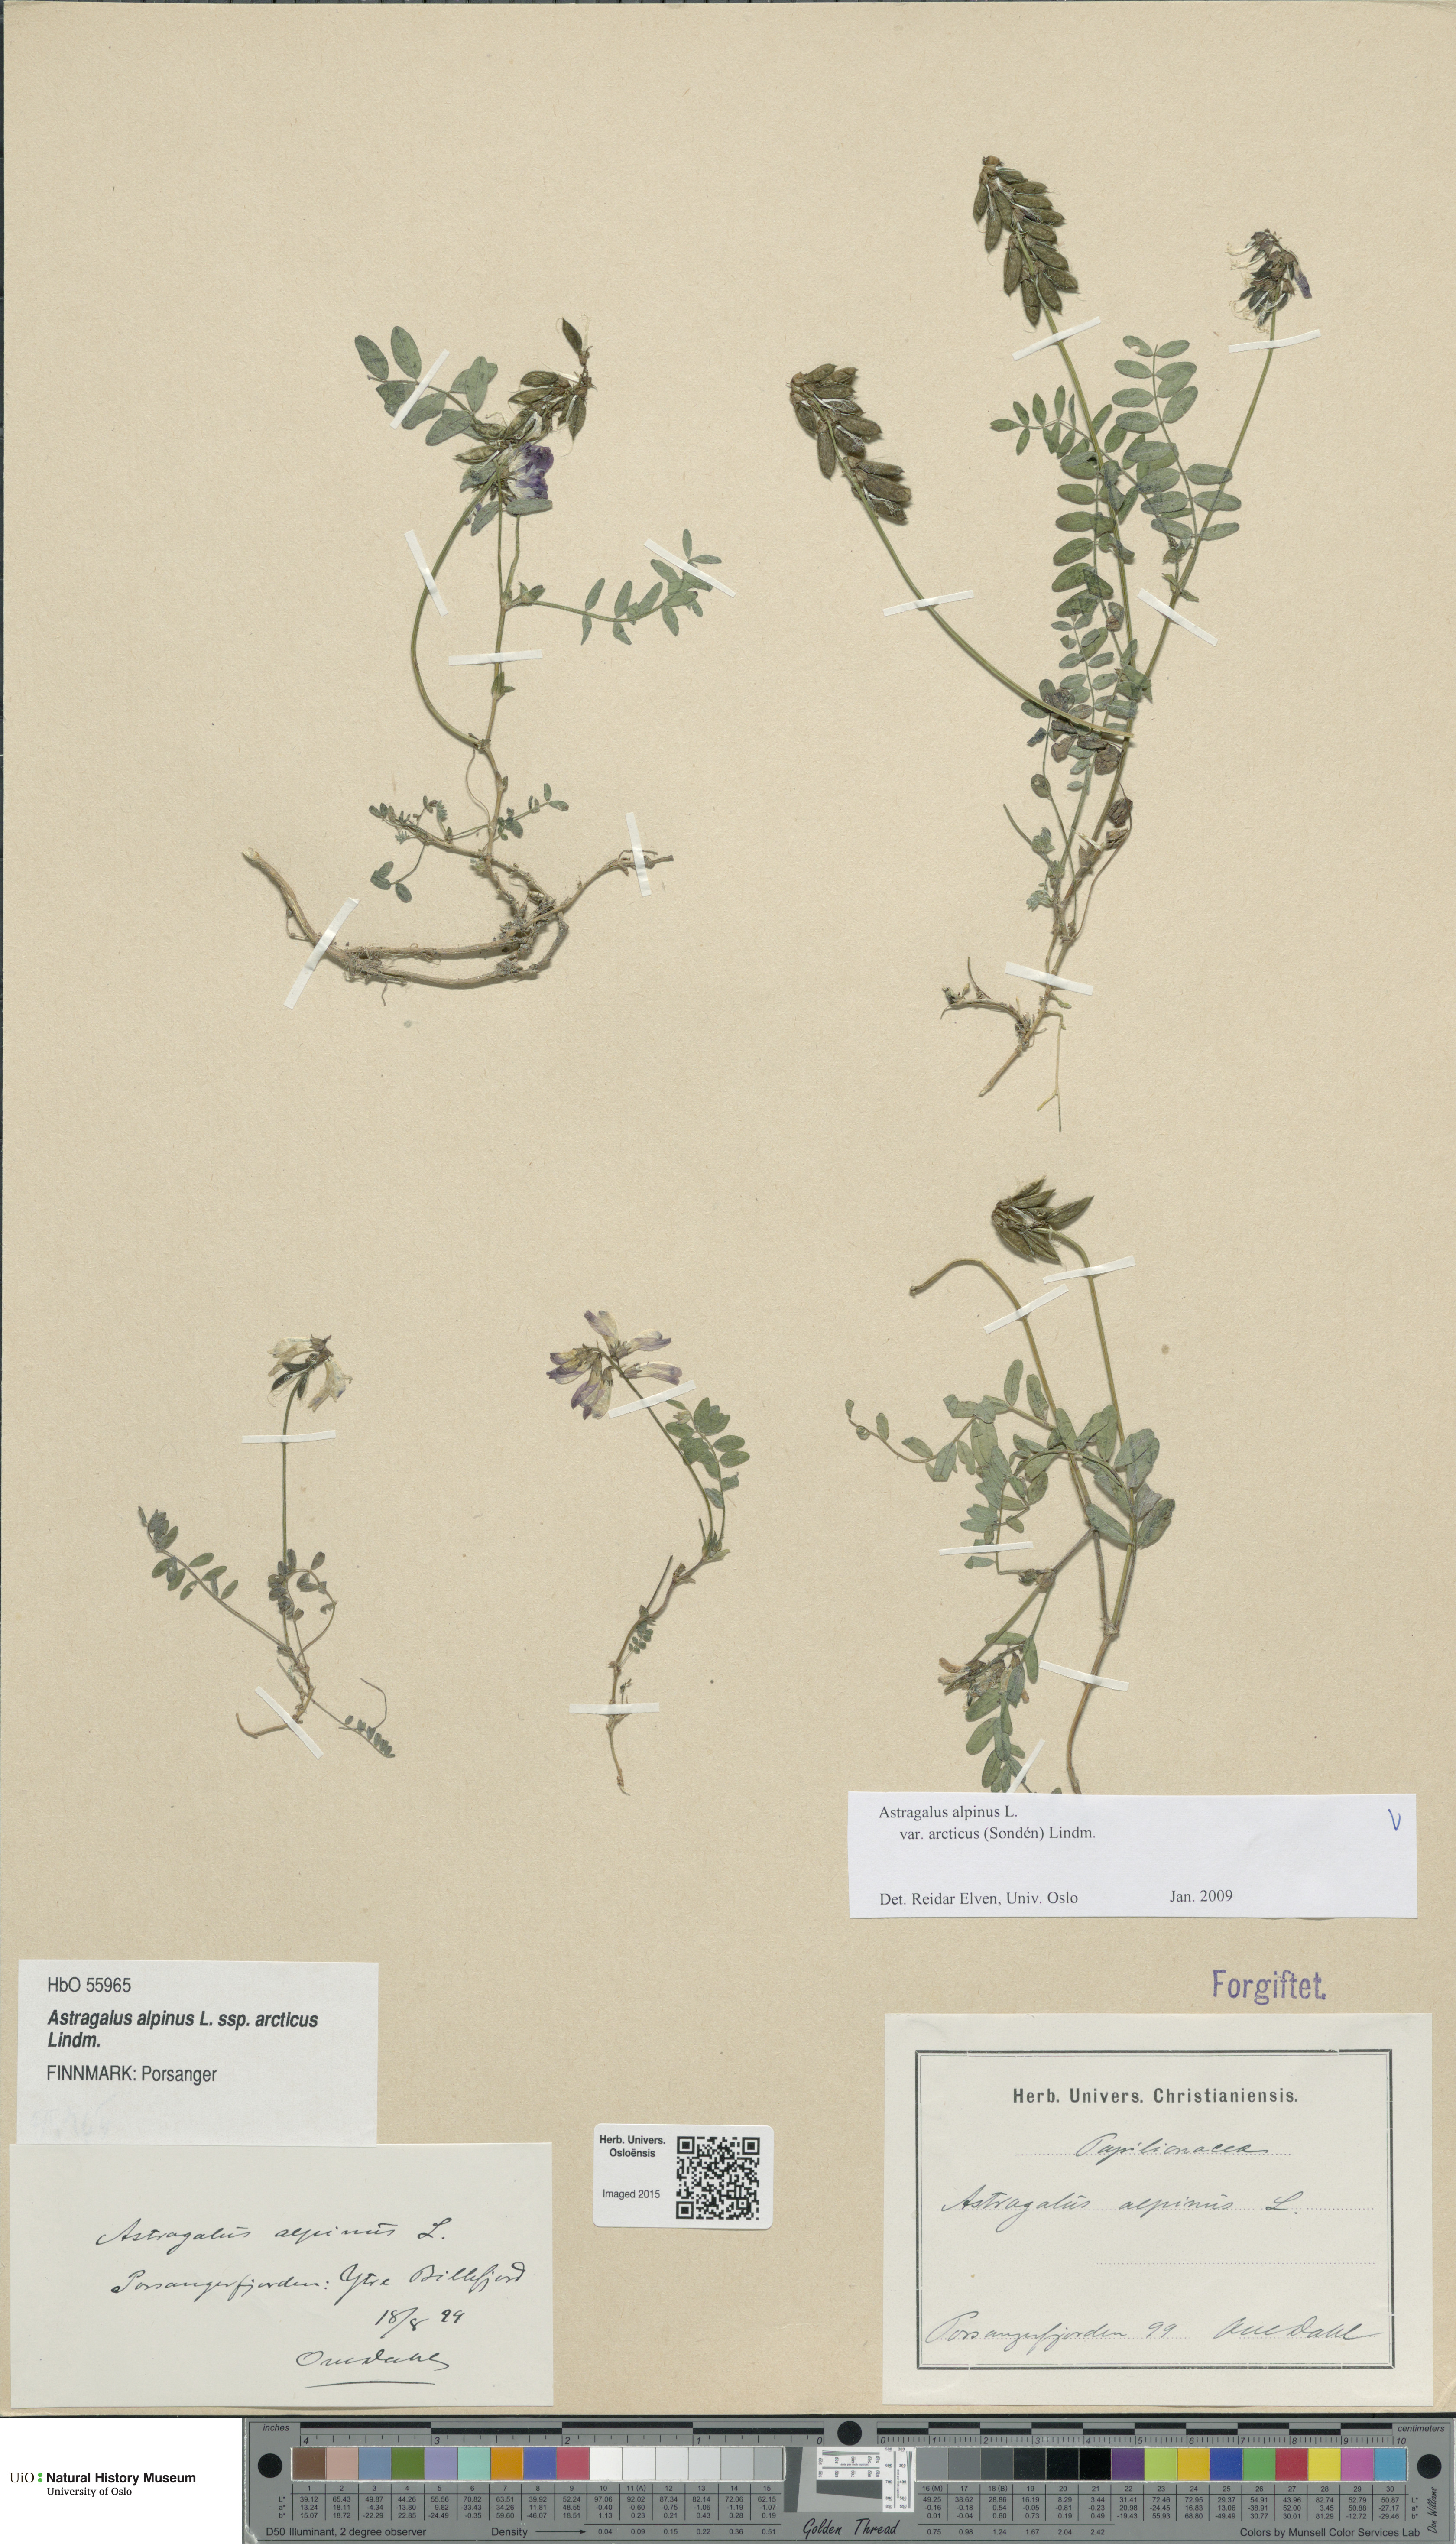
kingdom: Plantae
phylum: Tracheophyta
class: Magnoliopsida
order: Fabales
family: Fabaceae
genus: Astragalus
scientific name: Astragalus norvegicus
